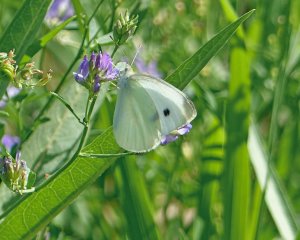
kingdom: Animalia
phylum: Arthropoda
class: Insecta
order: Lepidoptera
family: Pieridae
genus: Pieris
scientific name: Pieris rapae
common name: Cabbage White
